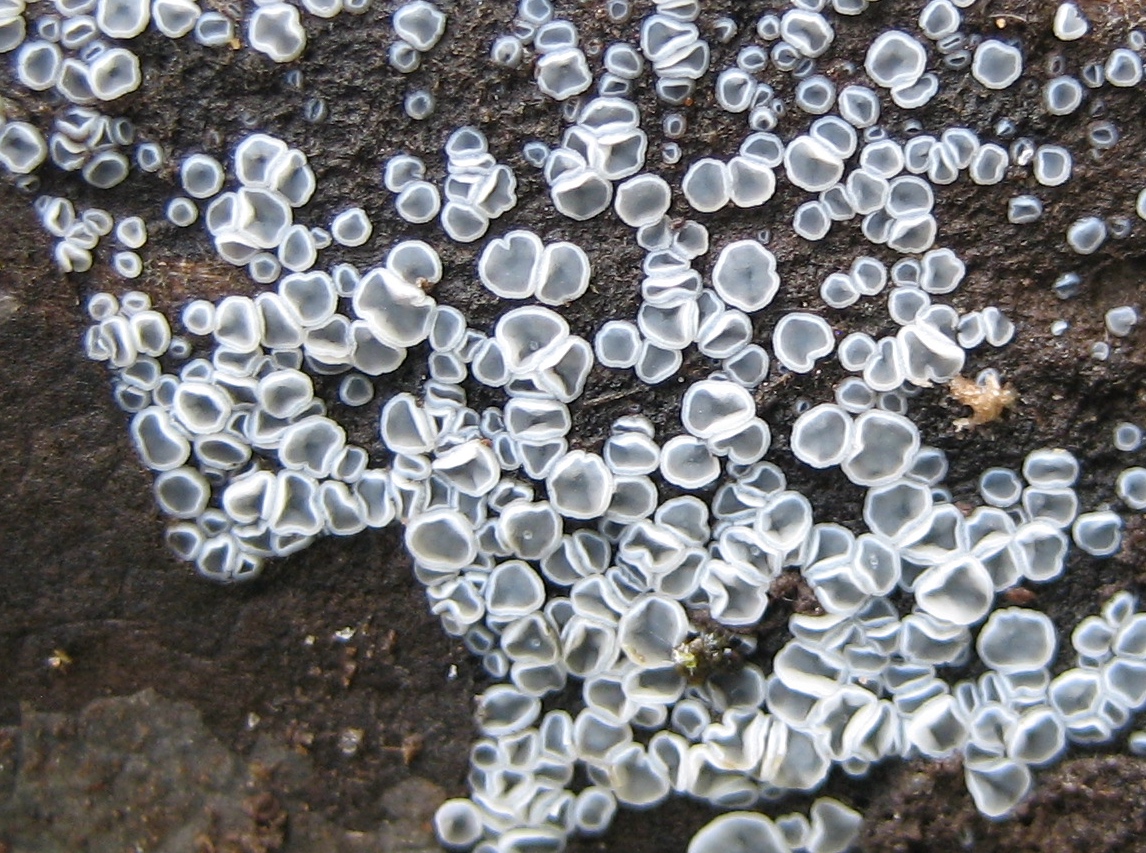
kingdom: Fungi
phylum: Ascomycota
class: Leotiomycetes
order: Helotiales
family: Mollisiaceae
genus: Mollisia
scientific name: Mollisia
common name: gråskive
